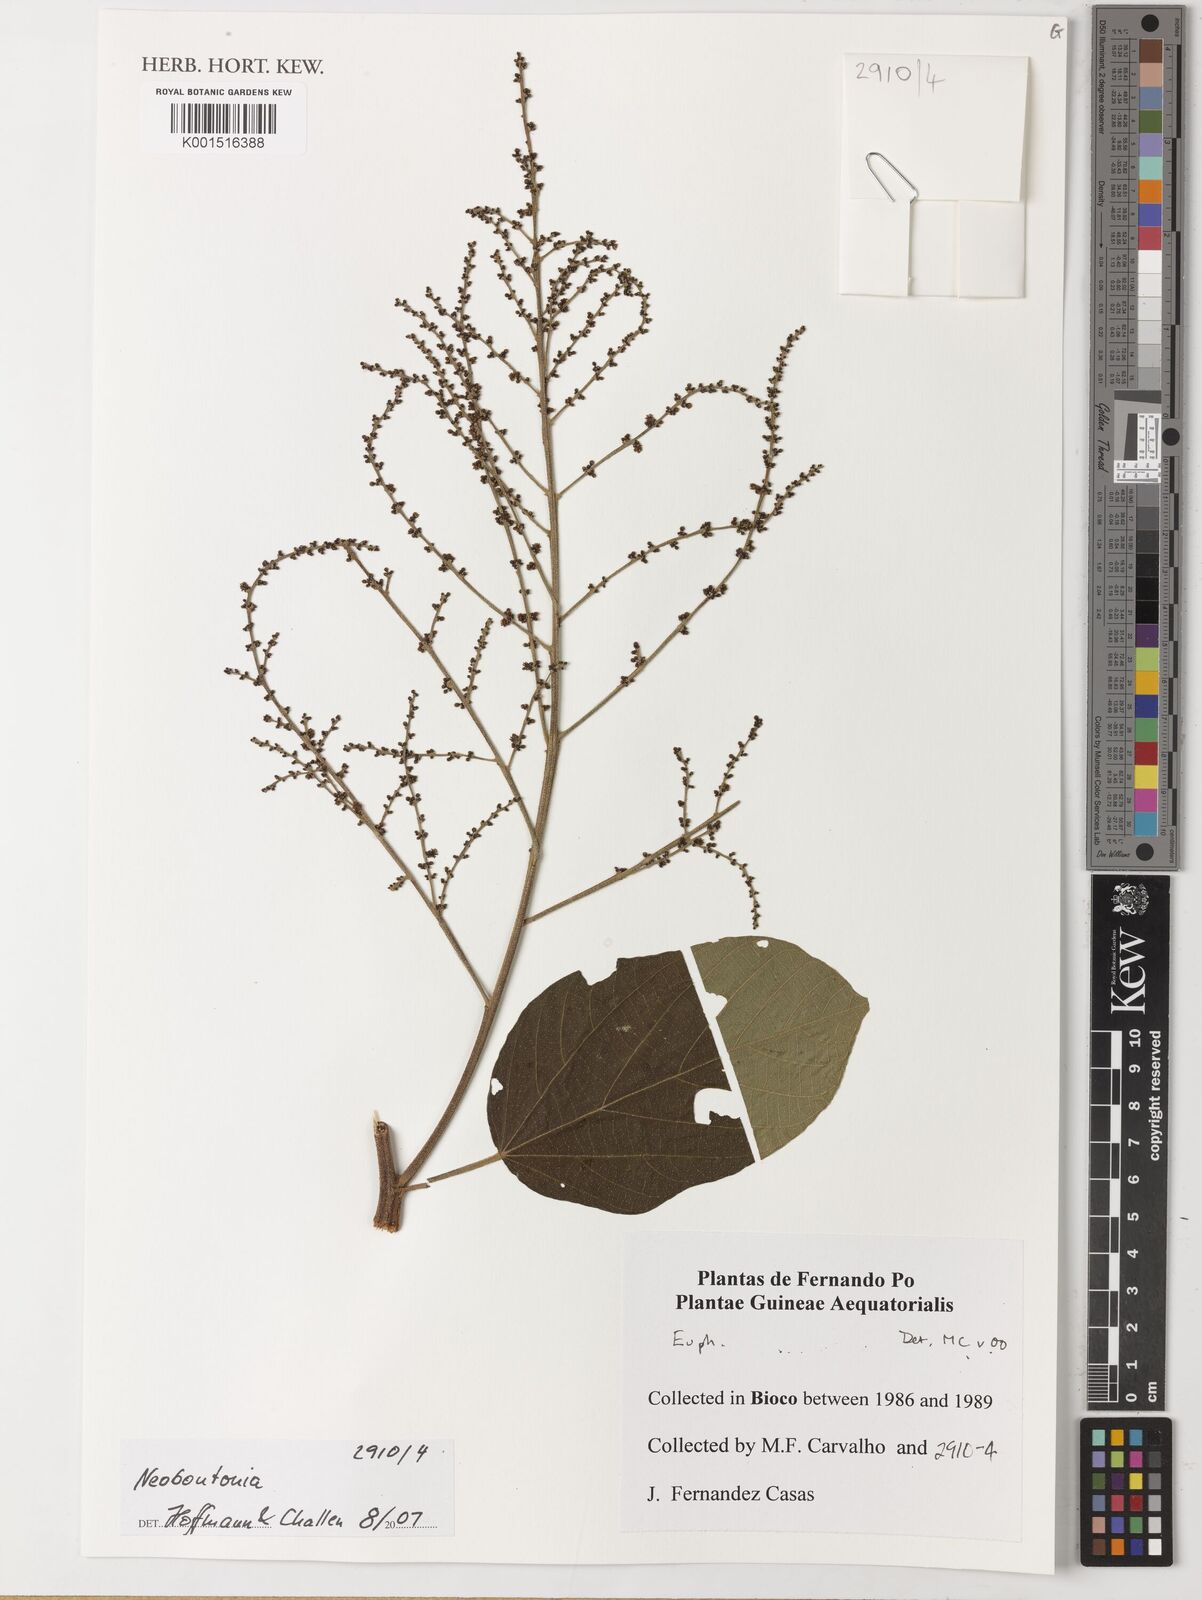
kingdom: Plantae
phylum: Tracheophyta
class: Magnoliopsida
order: Malpighiales
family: Euphorbiaceae
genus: Neoboutonia
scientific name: Neoboutonia
